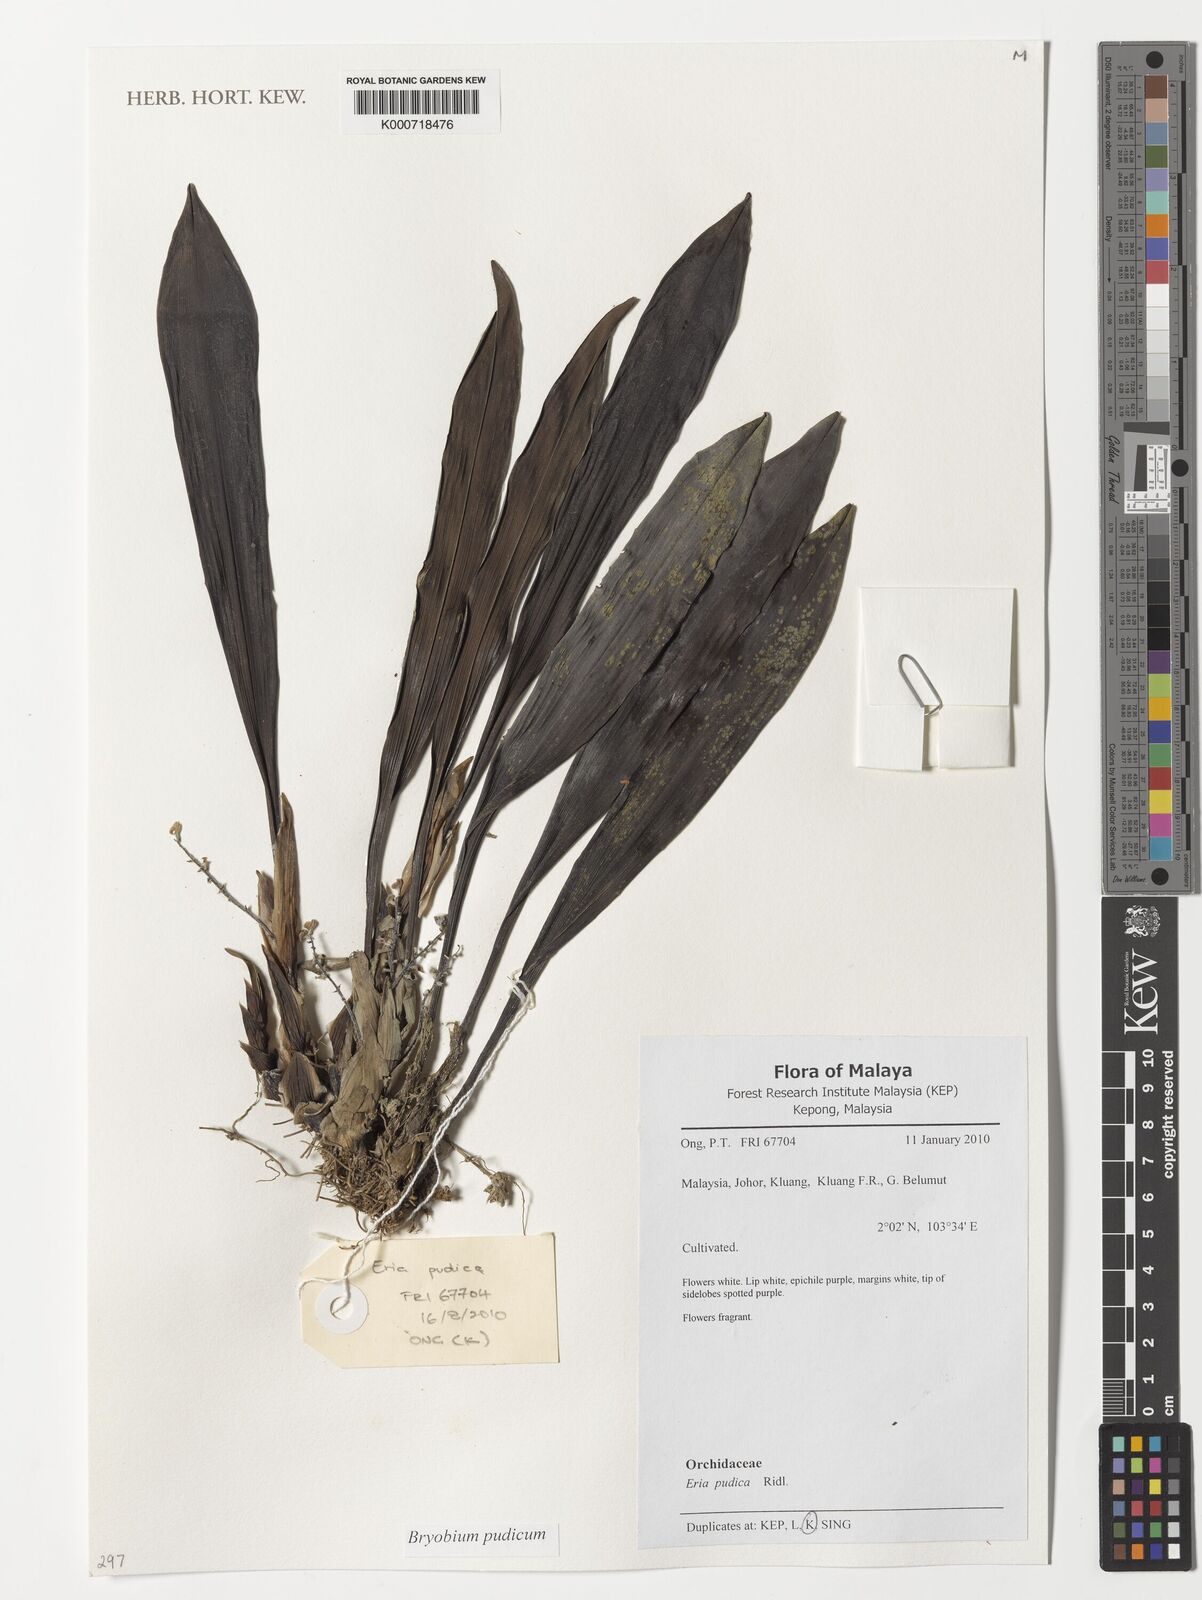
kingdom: Plantae
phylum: Tracheophyta
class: Liliopsida
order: Asparagales
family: Orchidaceae
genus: Bryobium
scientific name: Bryobium pudicum
